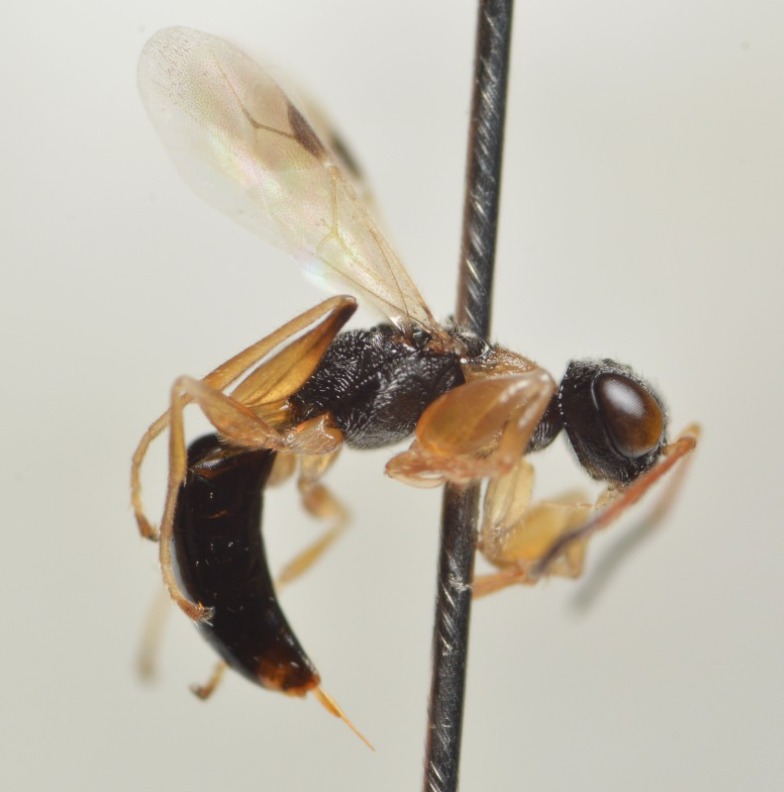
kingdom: Animalia
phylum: Arthropoda
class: Insecta
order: Hymenoptera
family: Dryinidae
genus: Anteon
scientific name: Anteon gaullei
